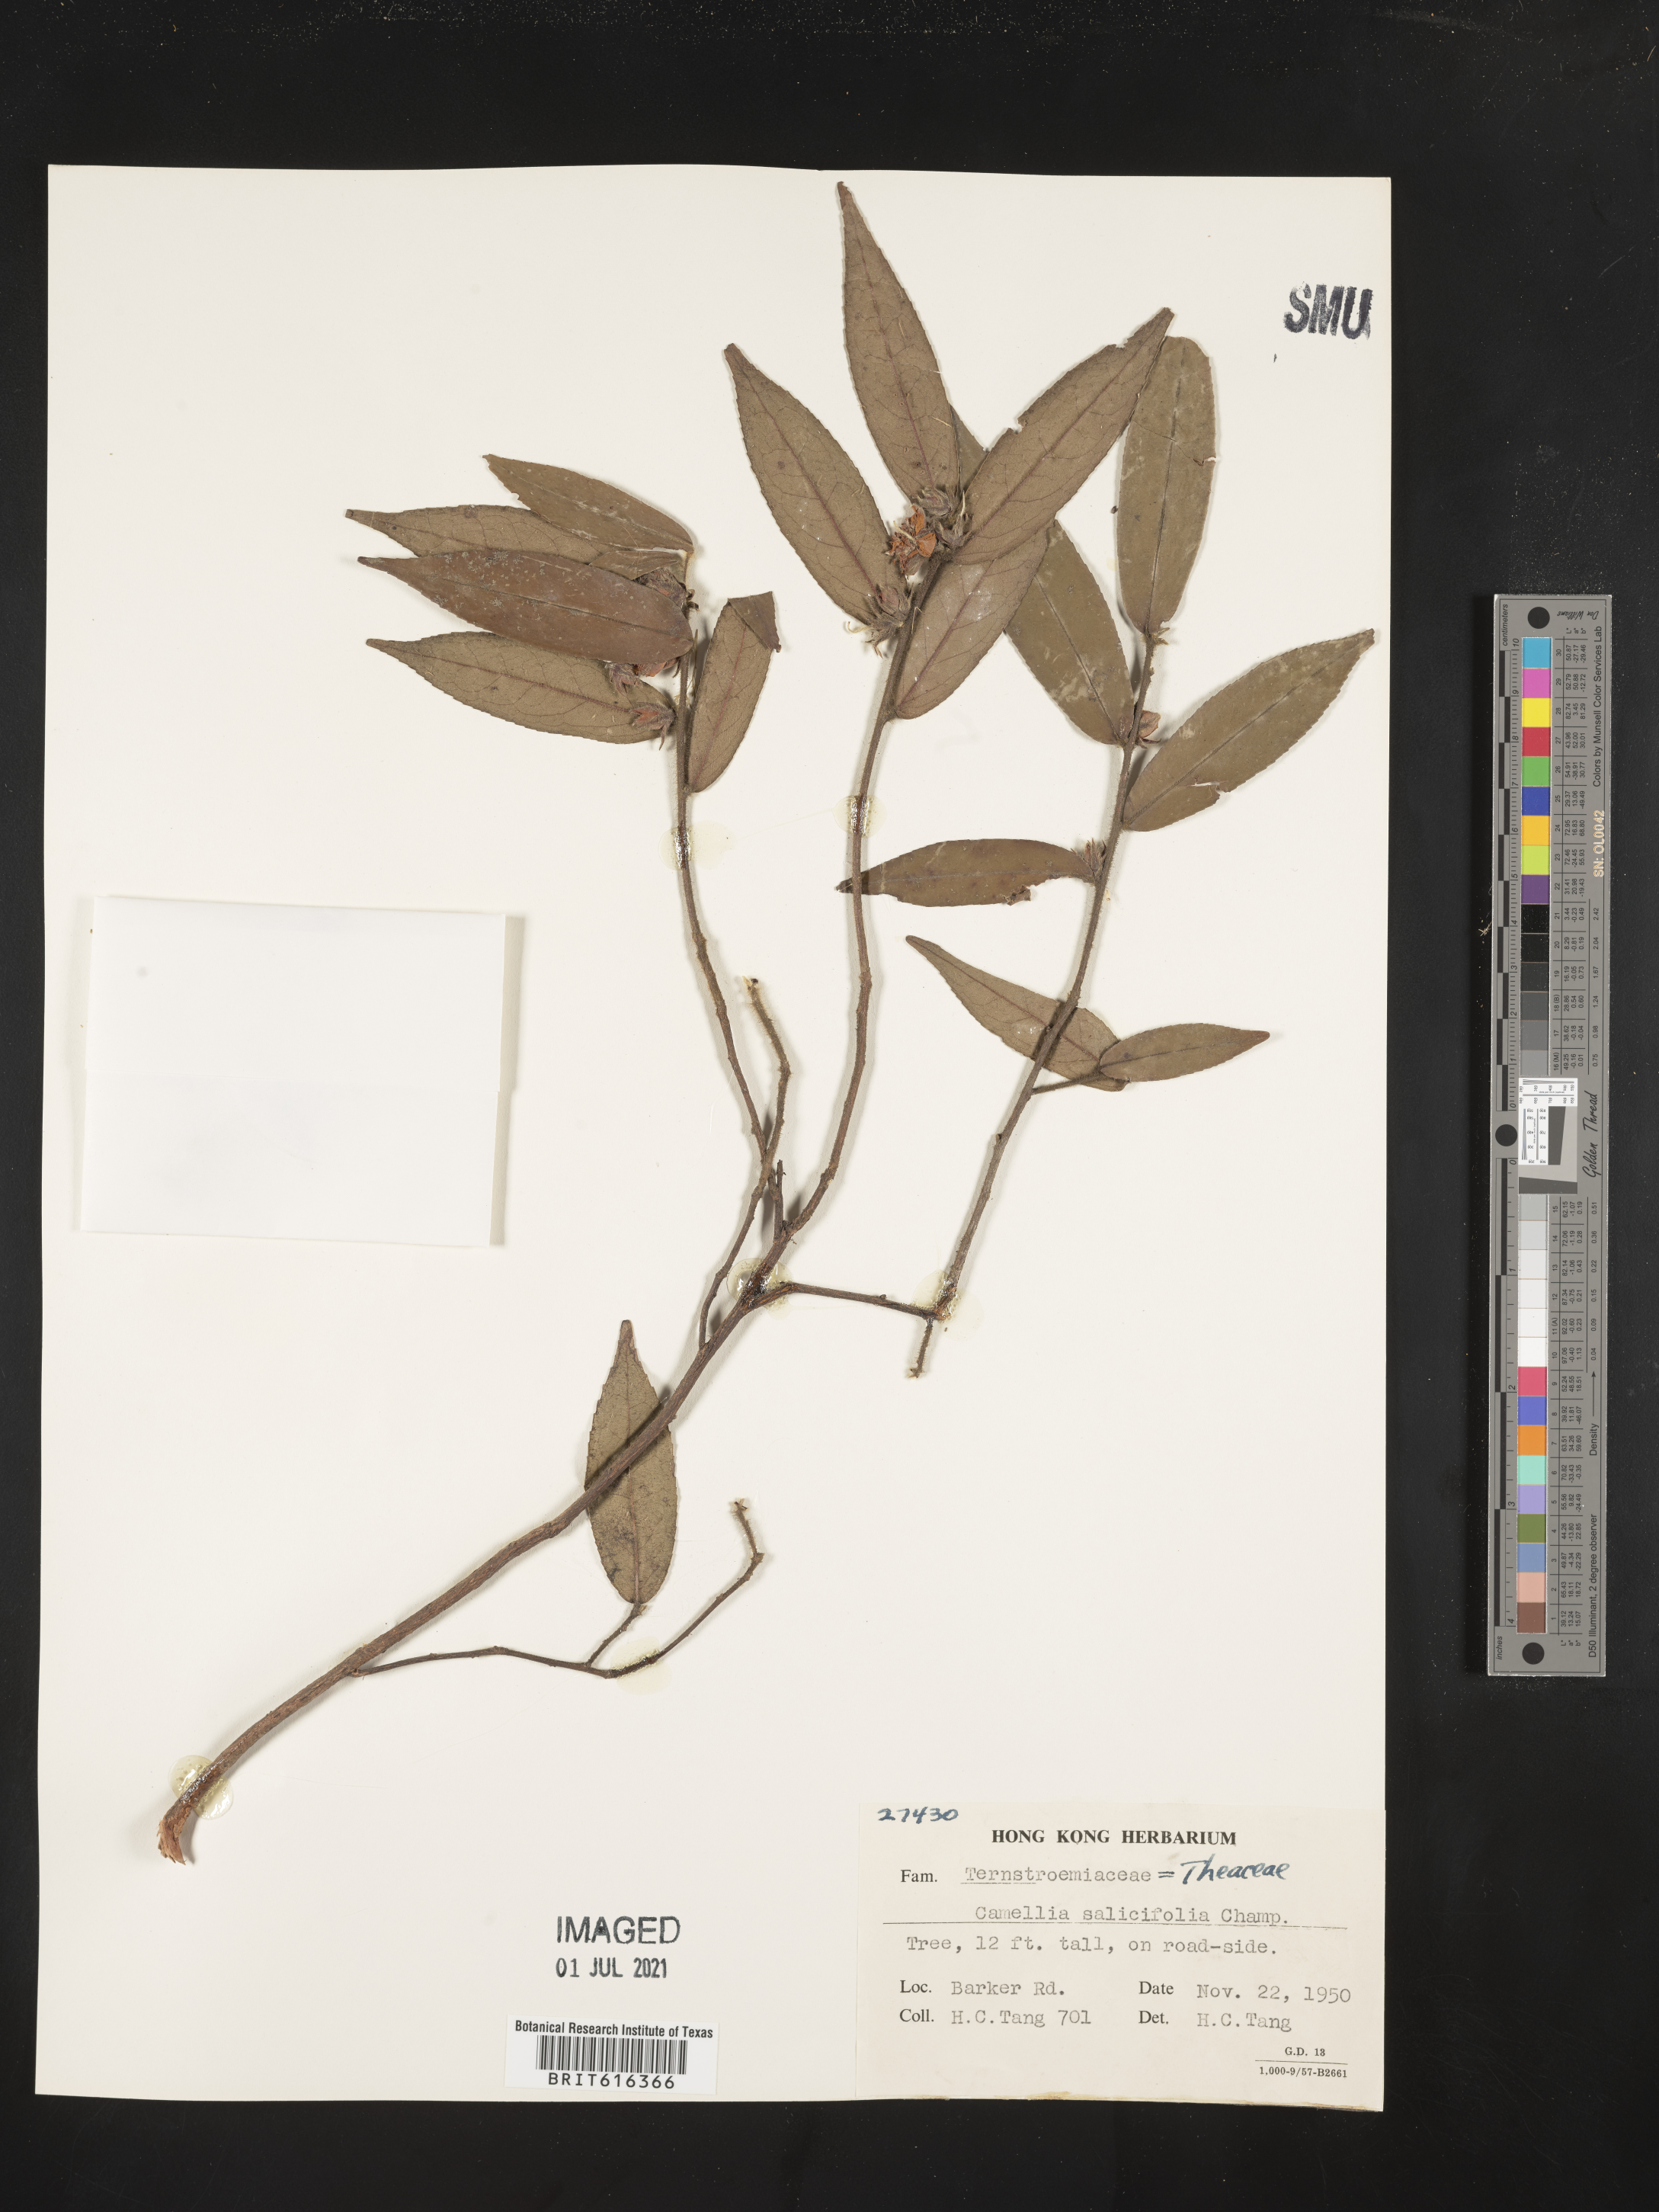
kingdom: Plantae
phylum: Tracheophyta
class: Magnoliopsida
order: Ericales
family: Theaceae
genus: Camellia
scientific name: Camellia salicifolia
